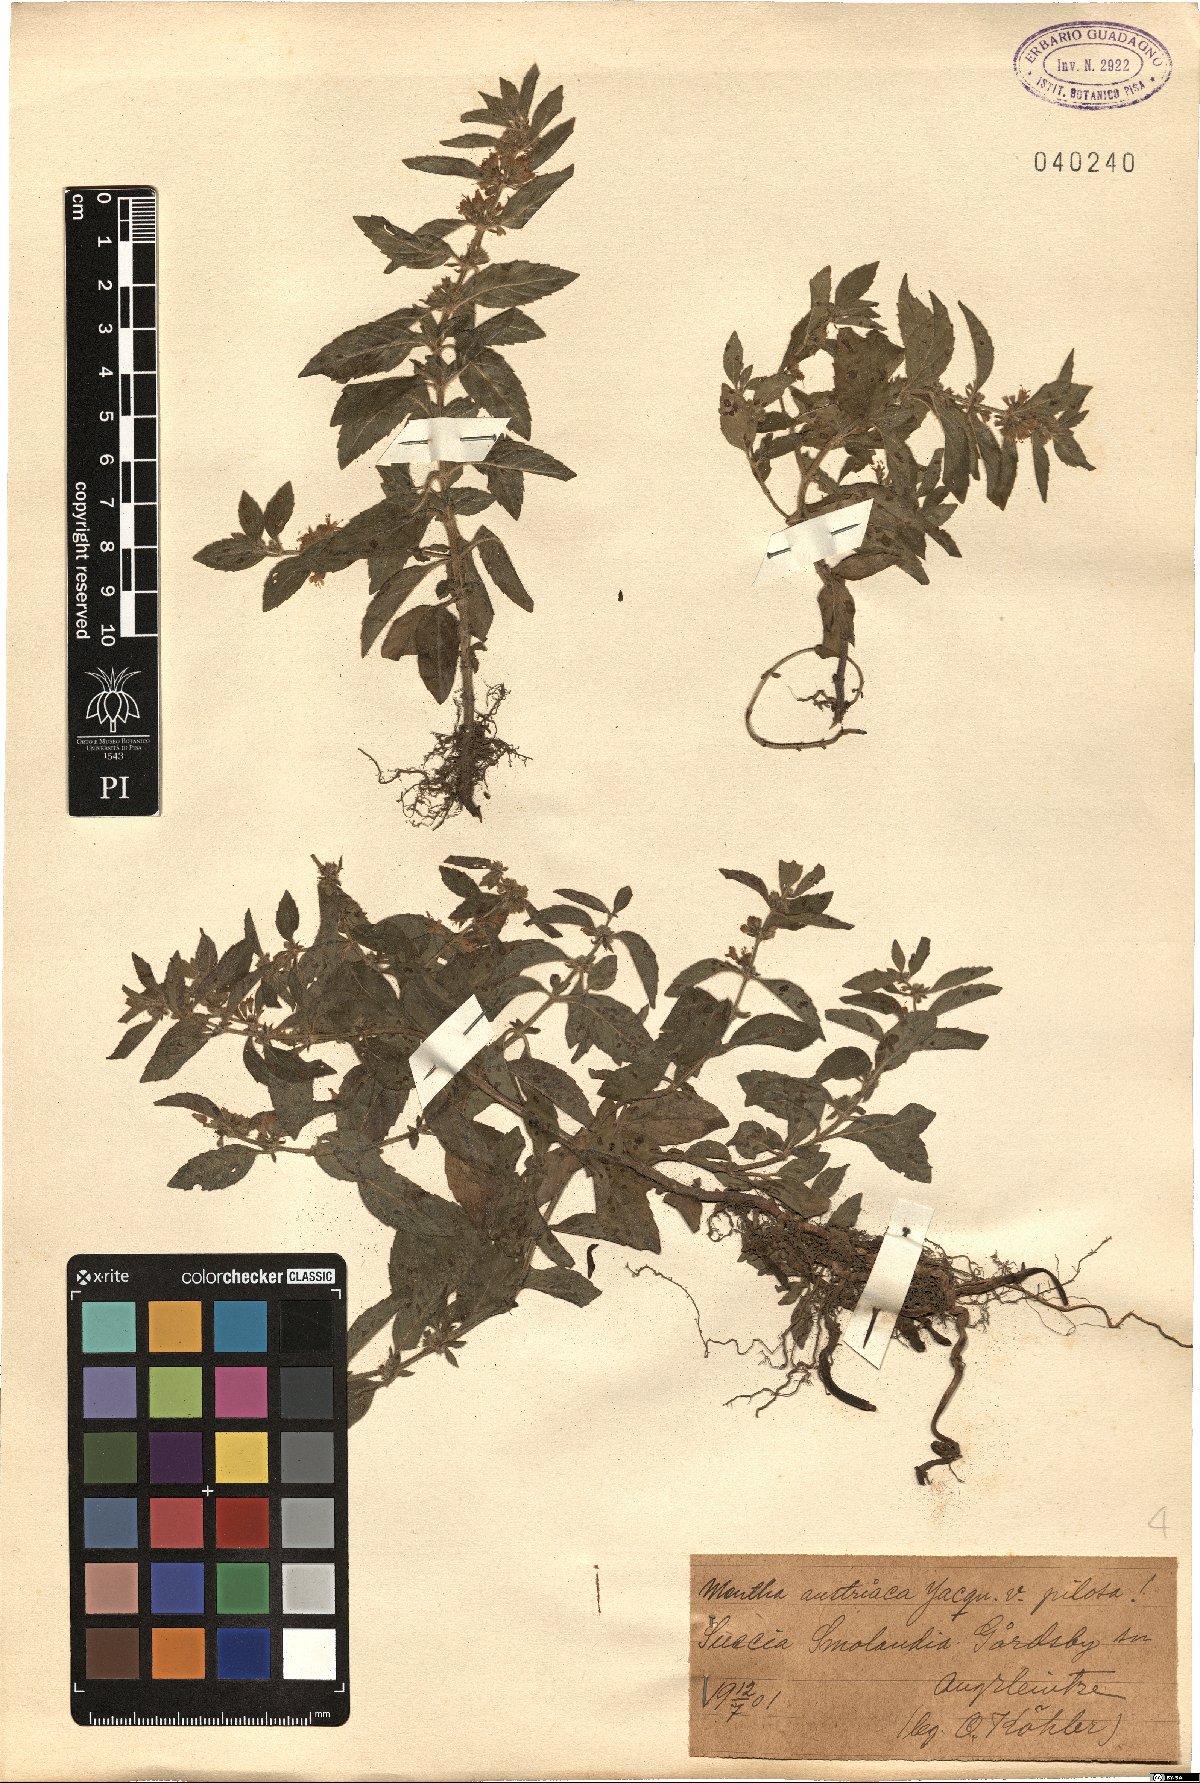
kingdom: Plantae
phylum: Tracheophyta
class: Magnoliopsida
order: Lamiales
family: Lamiaceae
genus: Mentha
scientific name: Mentha arvensis
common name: Corn mint
